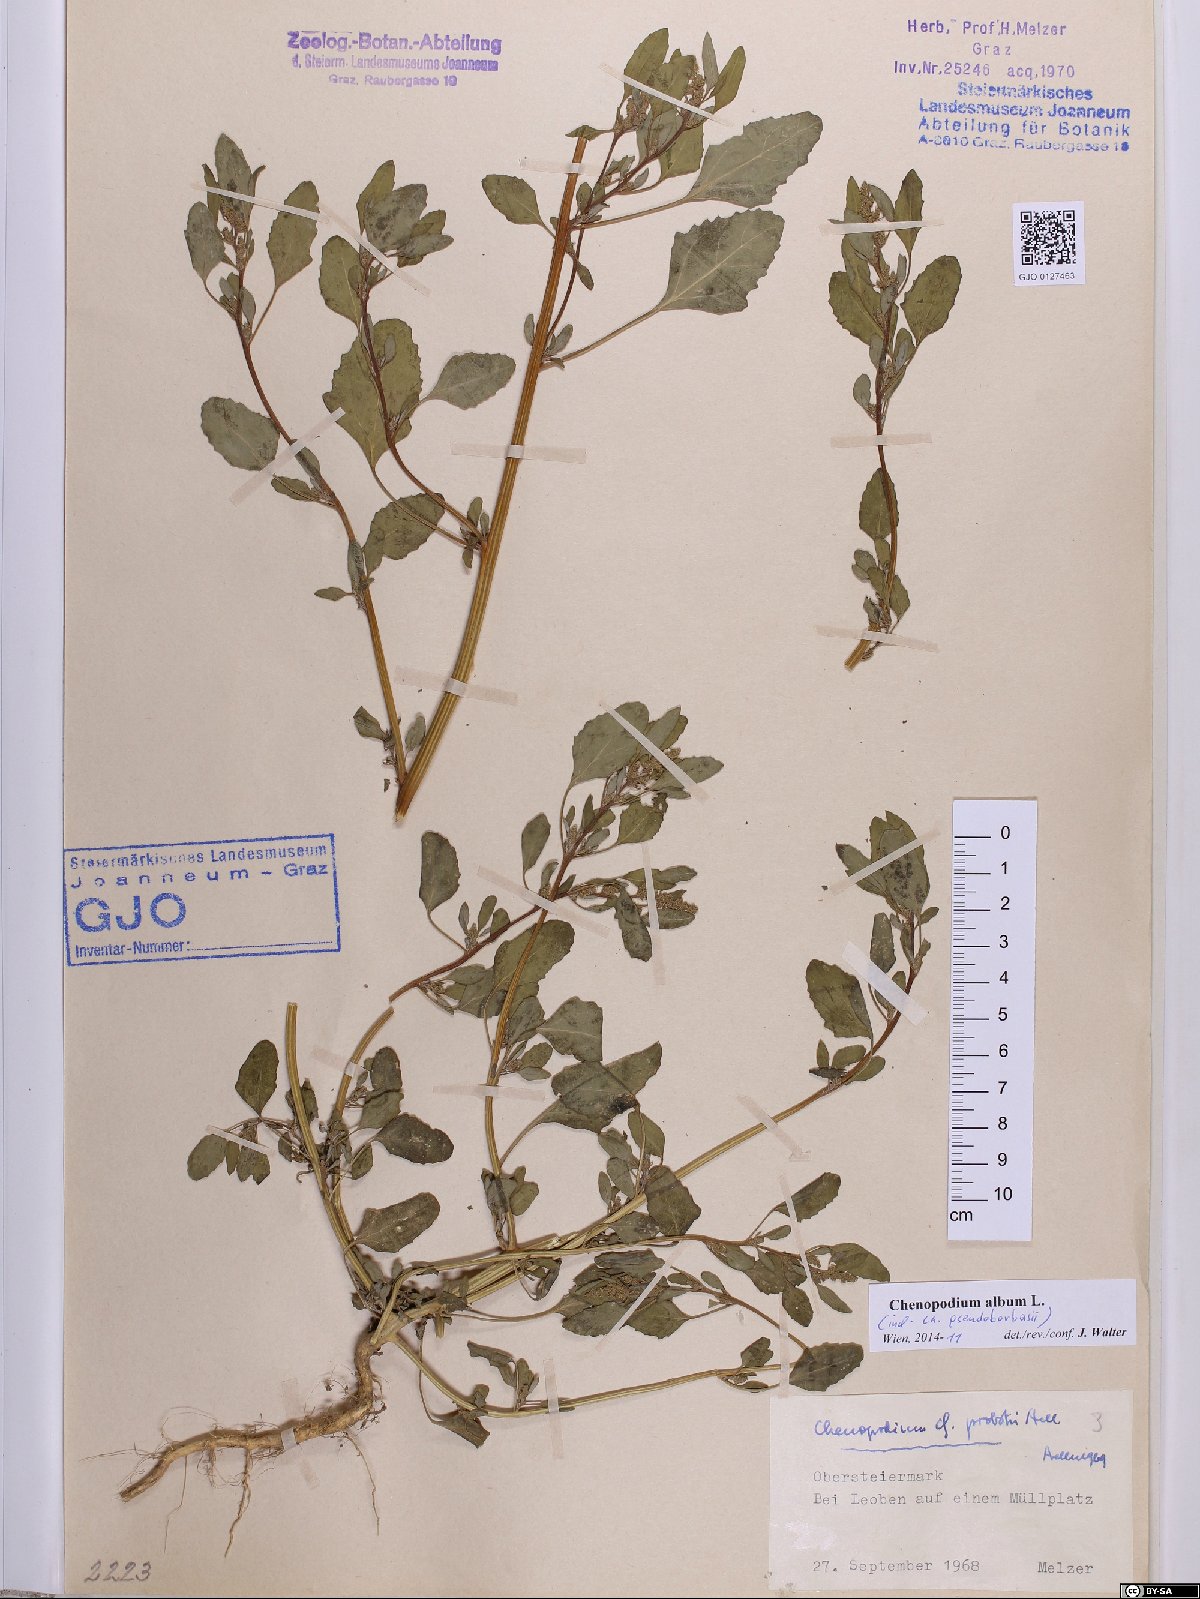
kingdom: Plantae
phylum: Tracheophyta
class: Magnoliopsida
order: Caryophyllales
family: Amaranthaceae
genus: Chenopodium
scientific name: Chenopodium album
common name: Fat-hen
